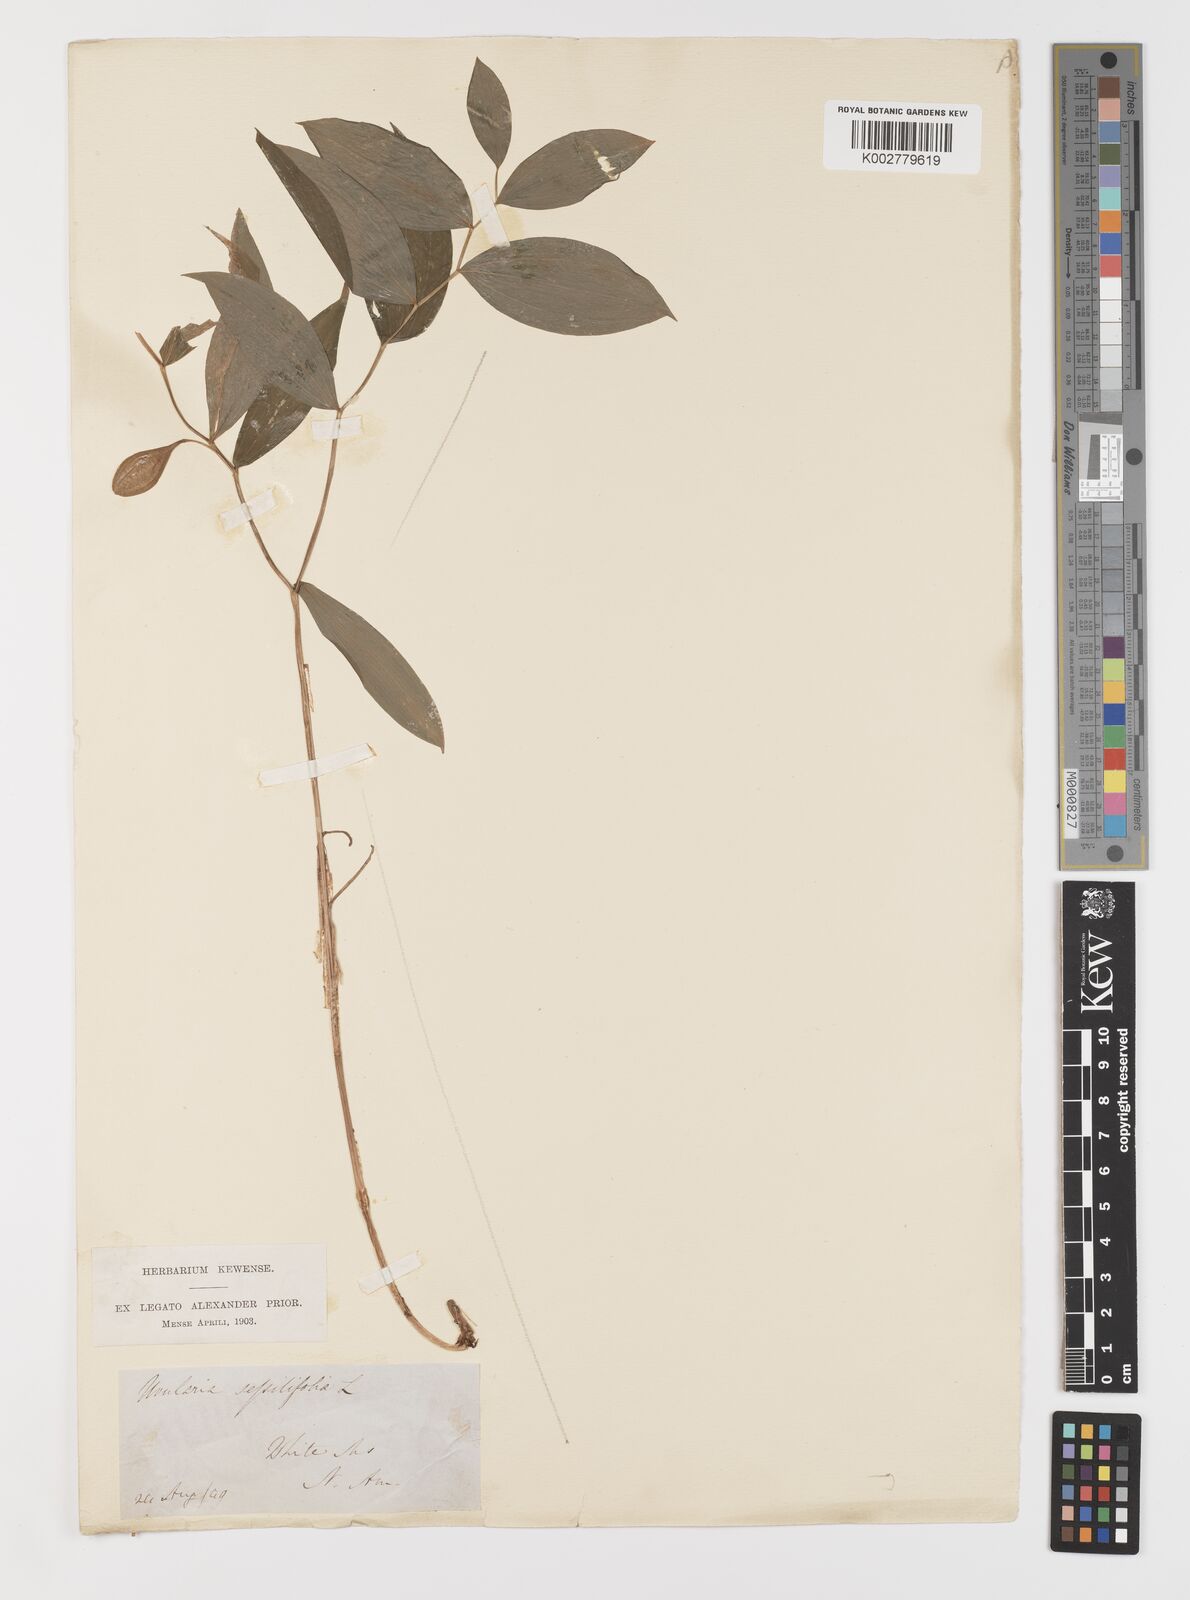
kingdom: Plantae
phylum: Tracheophyta
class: Liliopsida
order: Liliales
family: Colchicaceae
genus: Uvularia
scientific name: Uvularia sessilifolia
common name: Straw-lily
